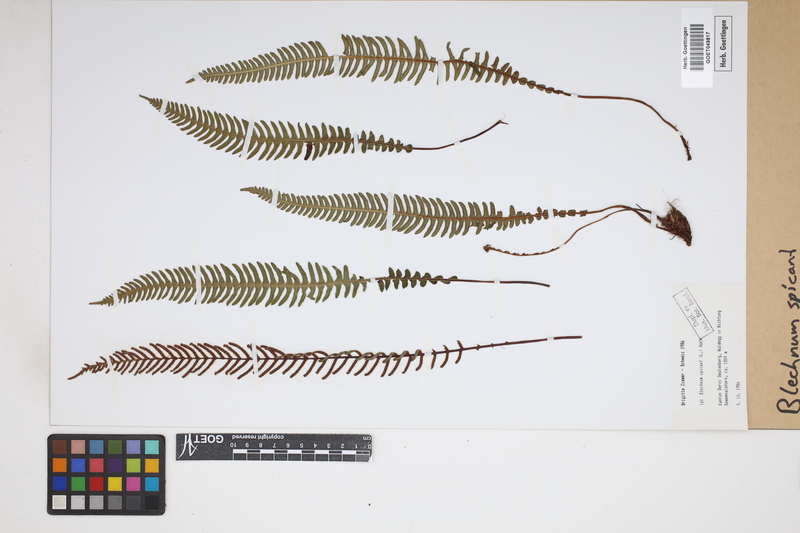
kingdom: Plantae
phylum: Tracheophyta
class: Polypodiopsida
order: Polypodiales
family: Blechnaceae
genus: Struthiopteris
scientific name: Struthiopteris spicant
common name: Deer fern
